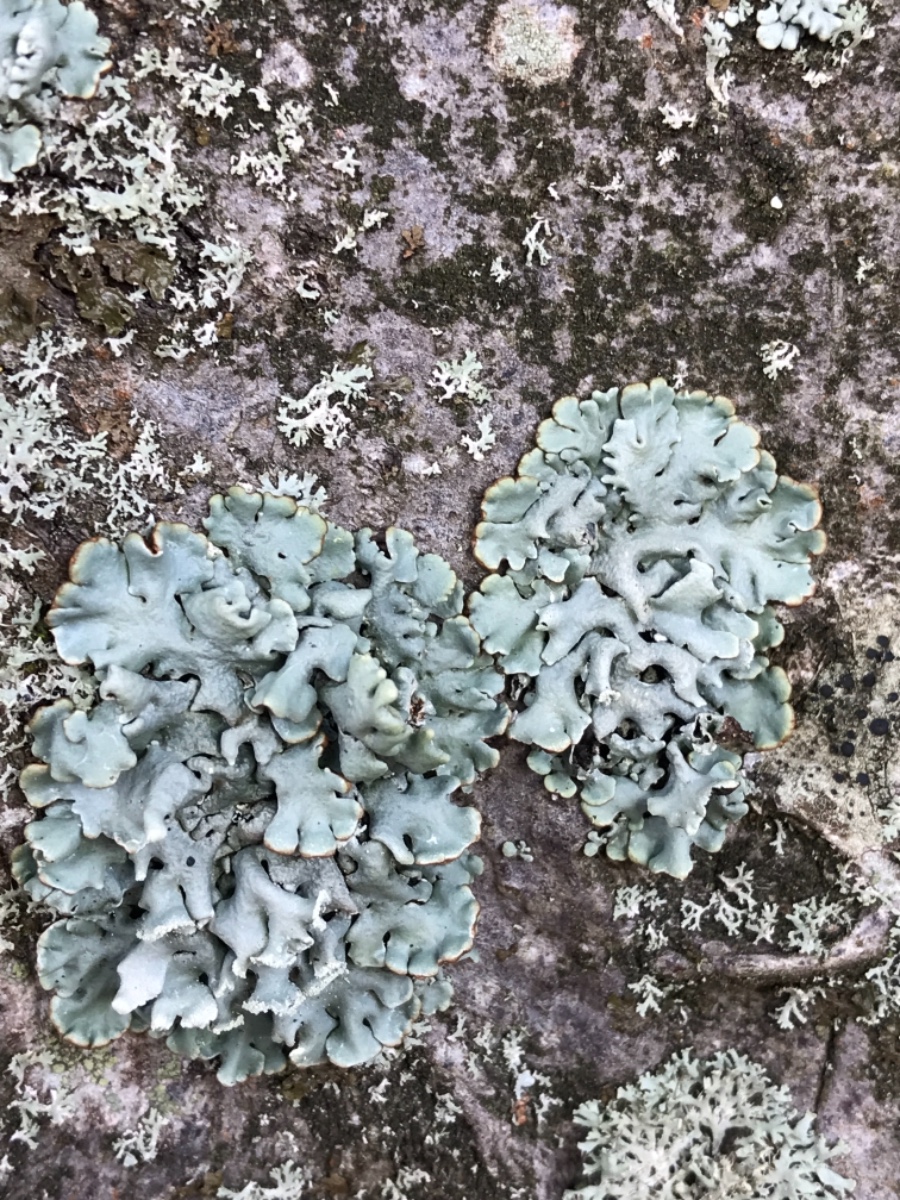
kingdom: Fungi
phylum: Ascomycota
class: Lecanoromycetes
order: Lecanorales
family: Parmeliaceae
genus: Hypogymnia
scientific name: Hypogymnia physodes
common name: almindelig kvistlav
